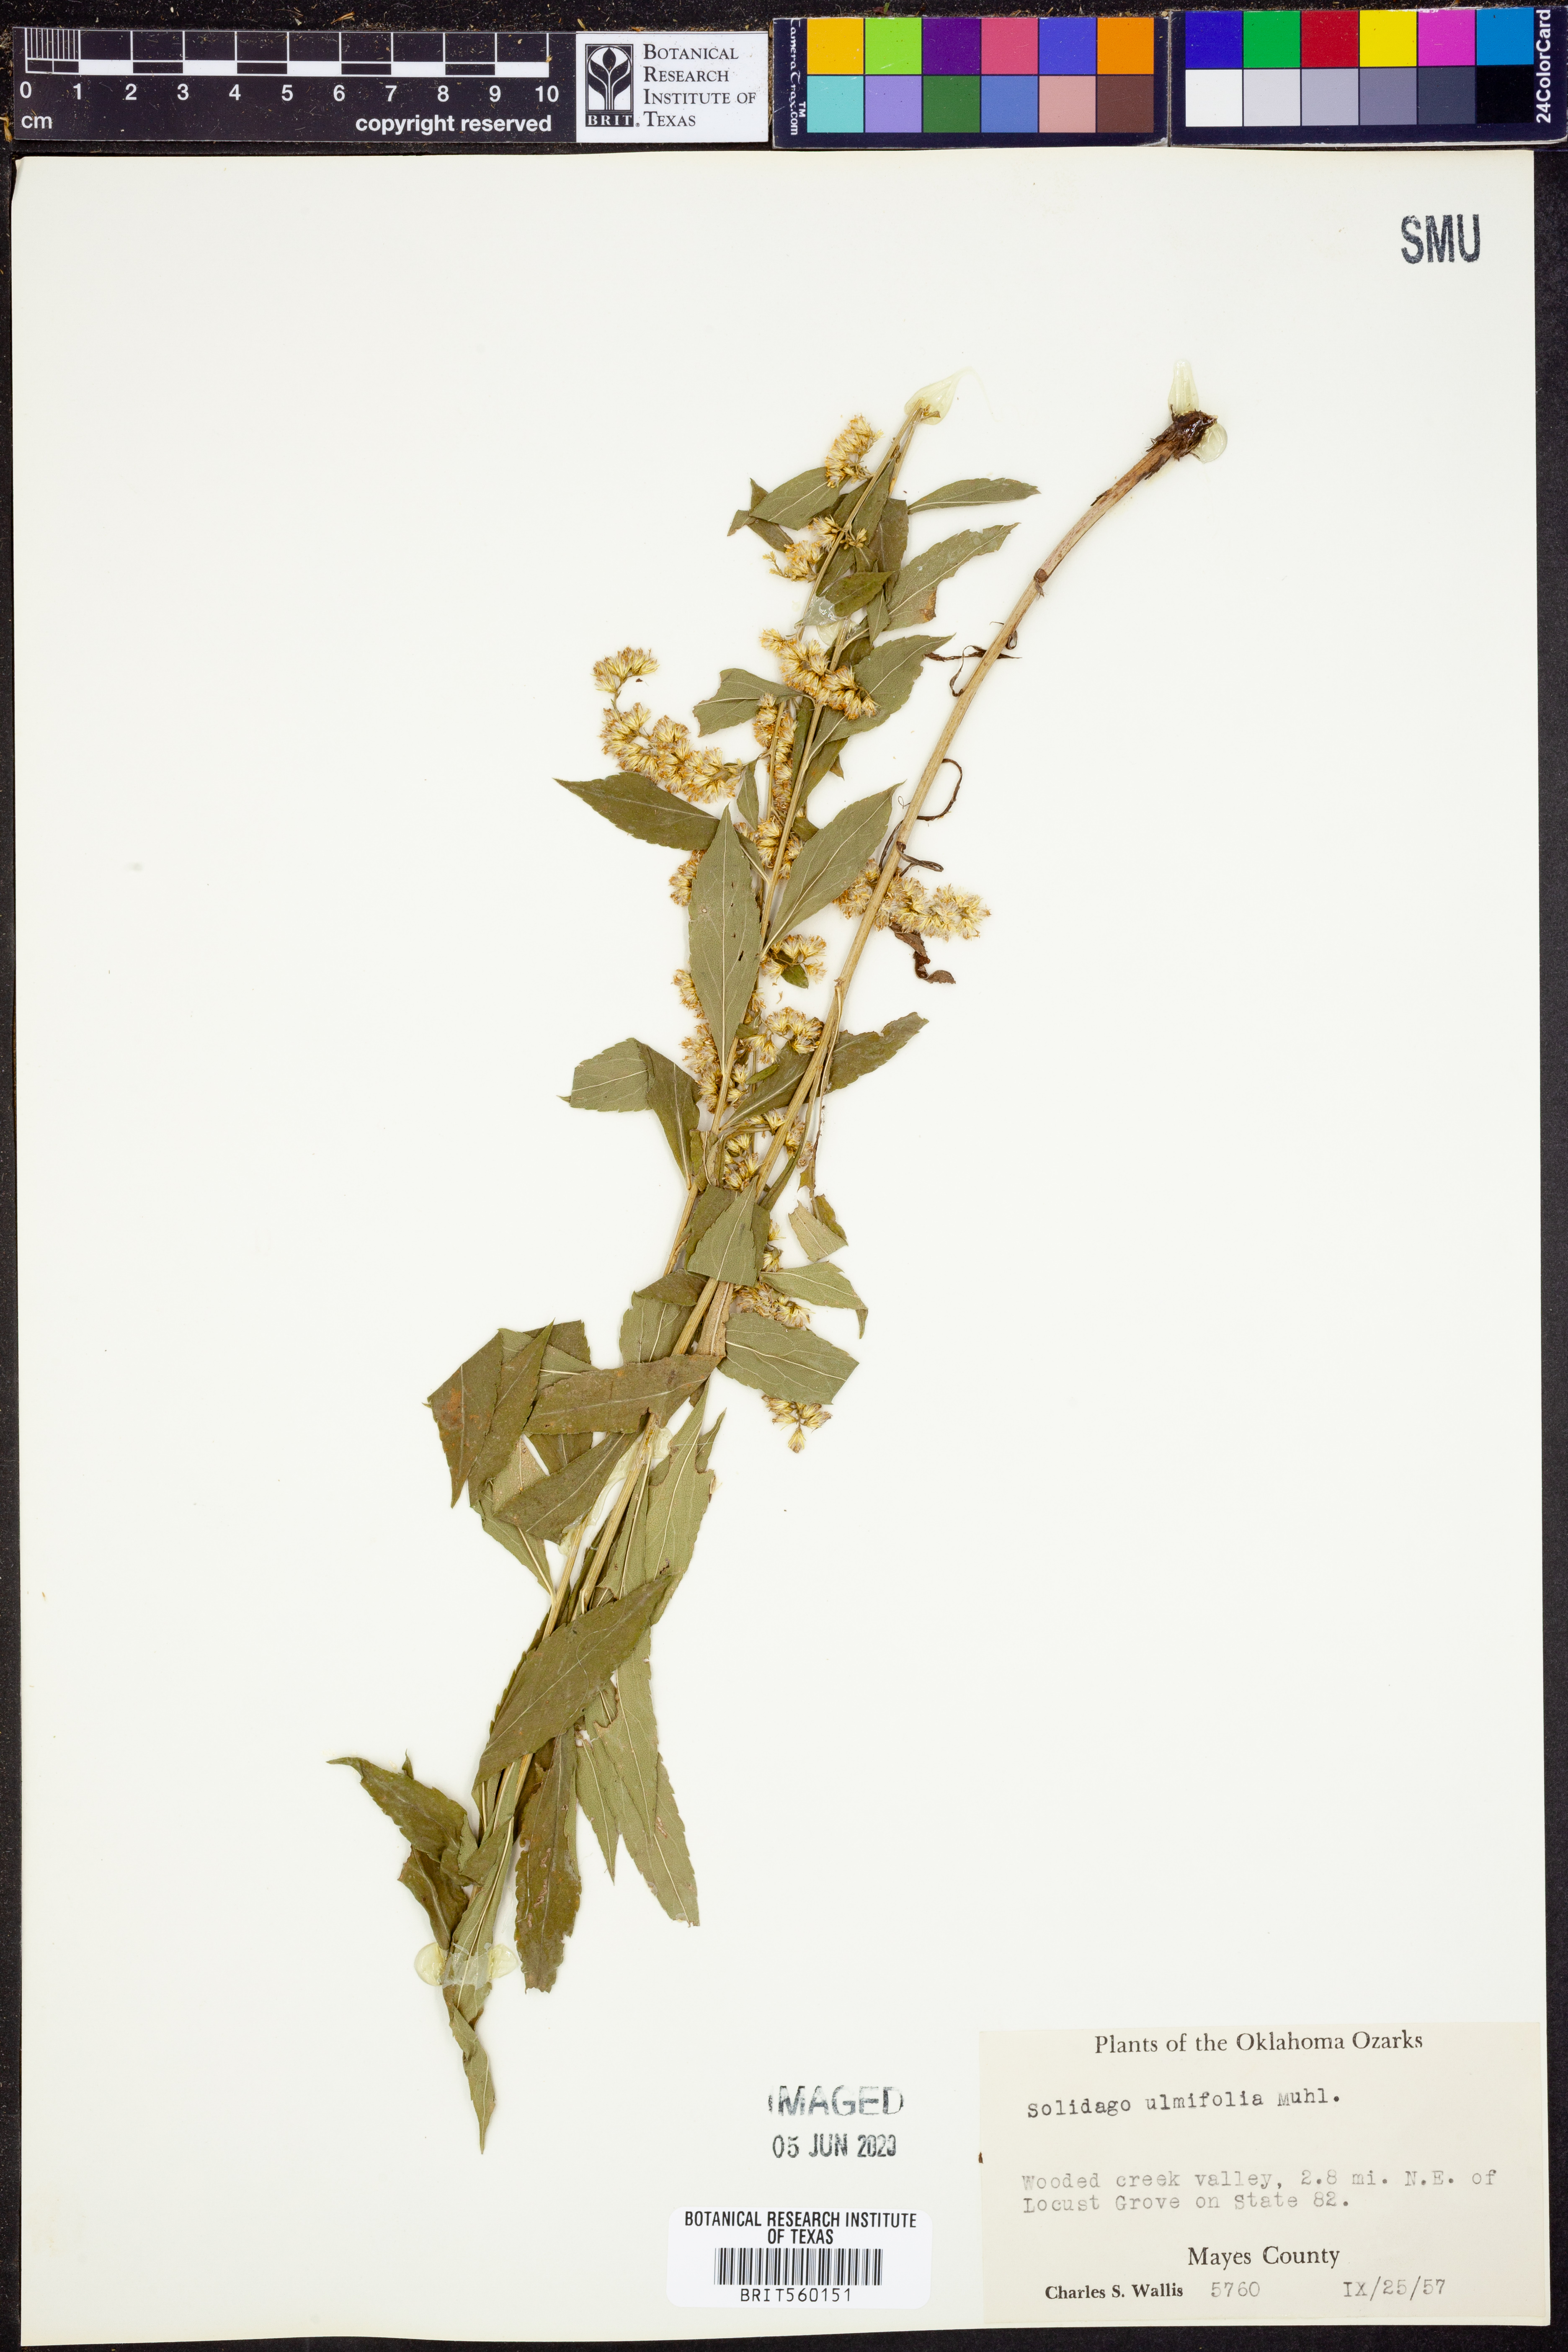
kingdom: Plantae
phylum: Tracheophyta
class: Magnoliopsida
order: Asterales
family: Asteraceae
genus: Solidago
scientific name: Solidago ulmifolia
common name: Elm-leaf goldenrod
